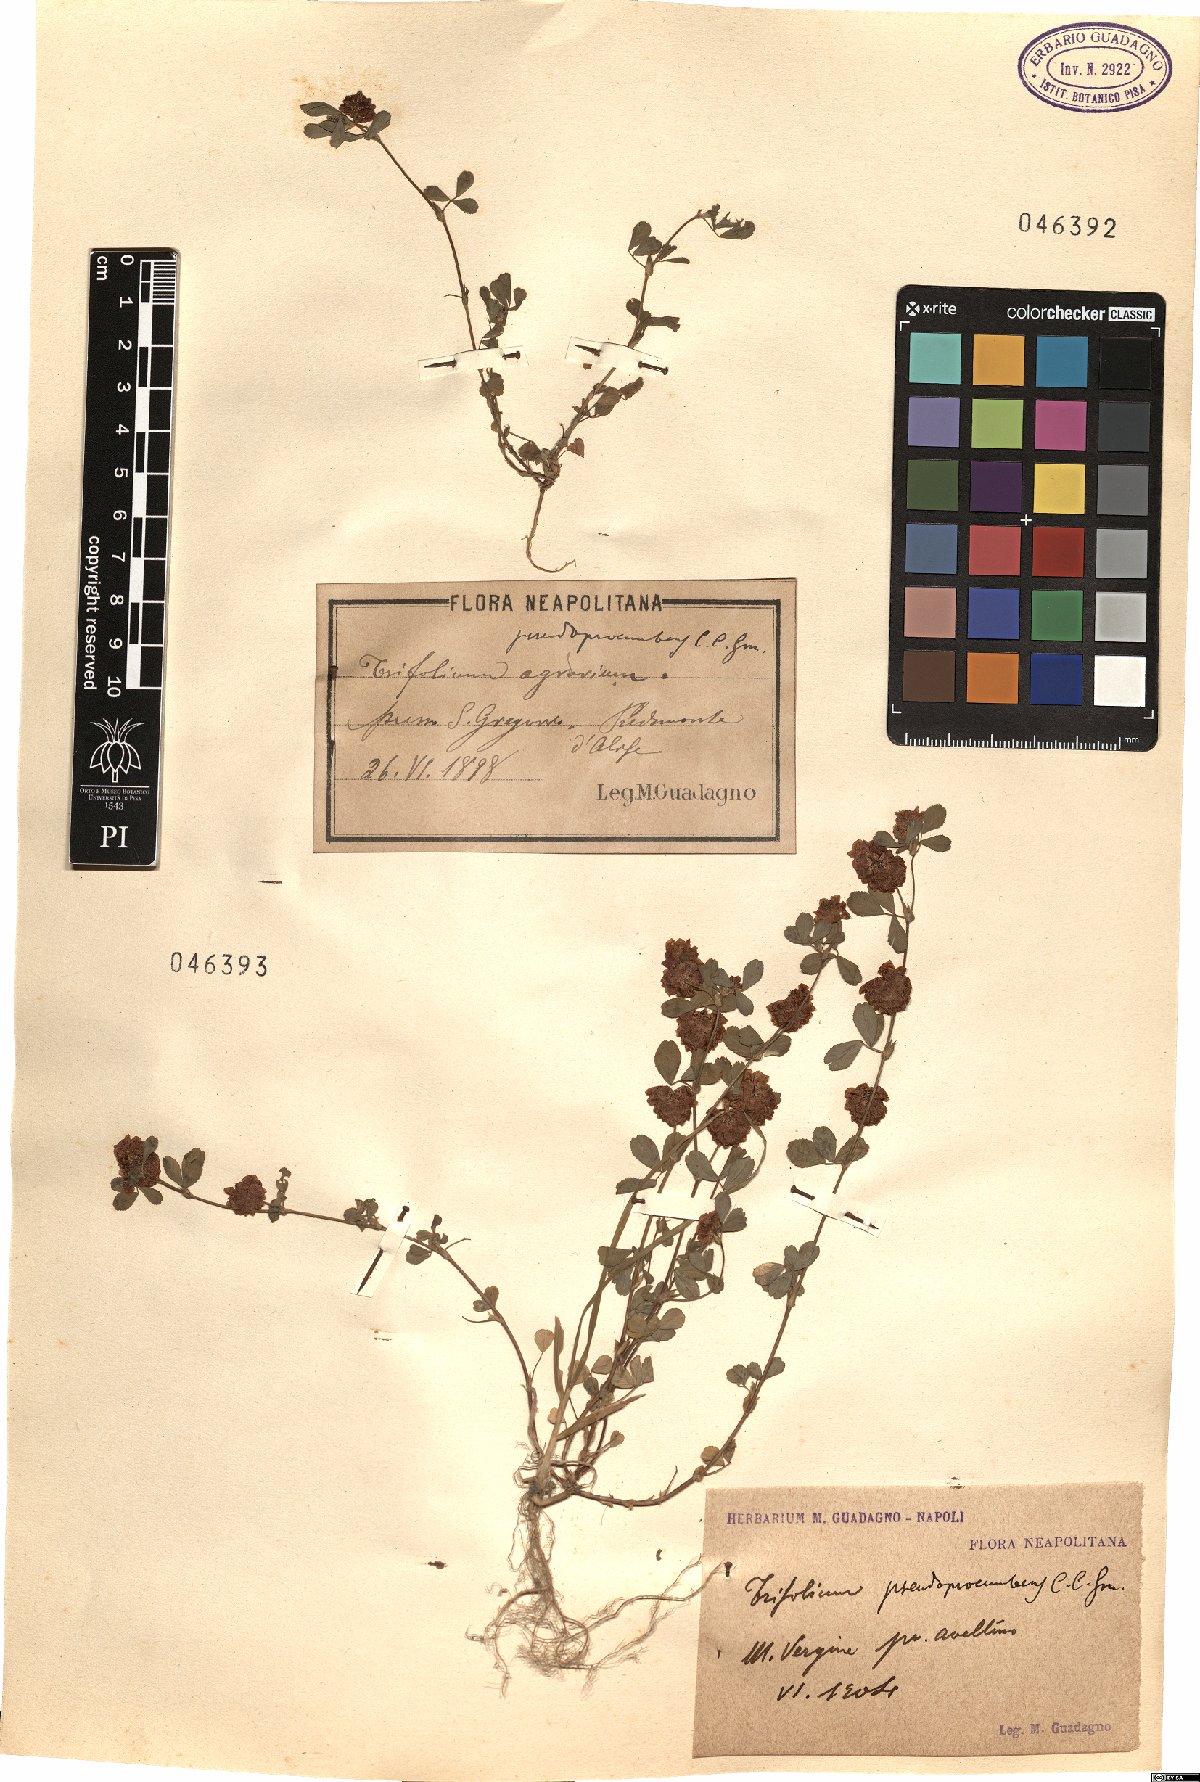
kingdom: Plantae
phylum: Tracheophyta
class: Magnoliopsida
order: Fabales
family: Fabaceae
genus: Trifolium
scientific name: Trifolium campestre
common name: Field clover
